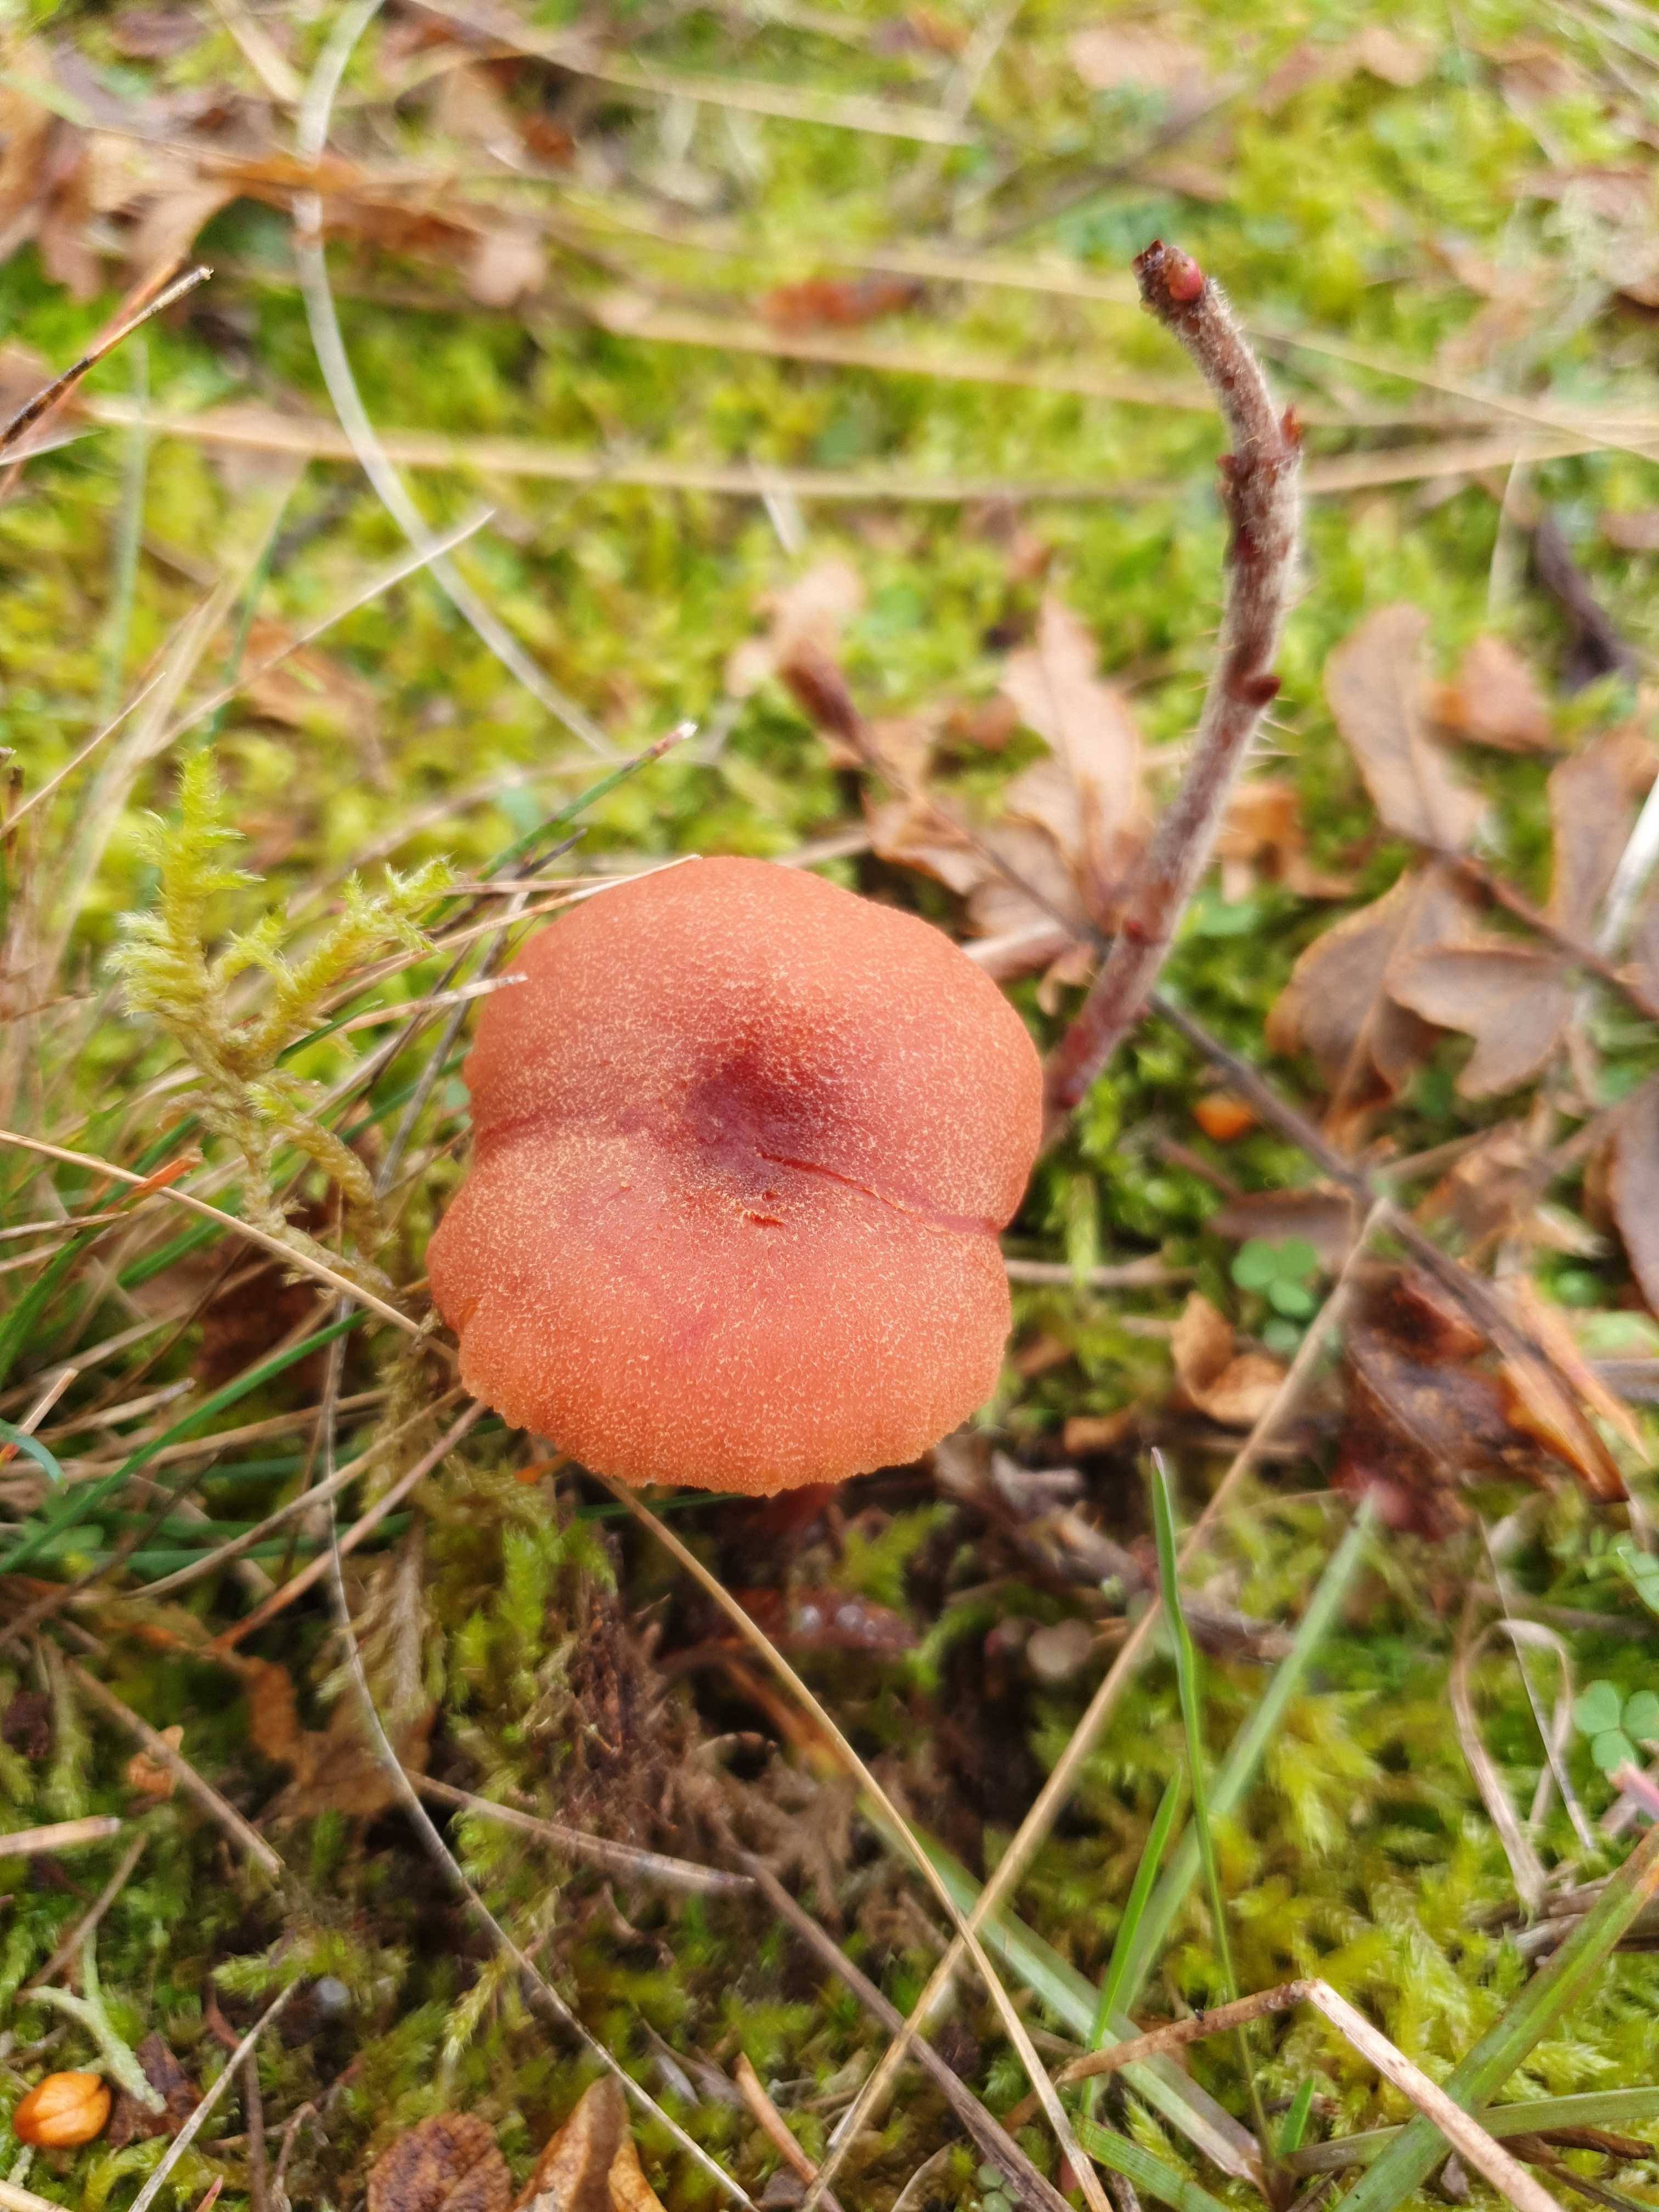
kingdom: Fungi
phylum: Basidiomycota
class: Agaricomycetes
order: Agaricales
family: Hydnangiaceae
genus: Laccaria
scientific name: Laccaria proxima
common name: stor ametysthat
